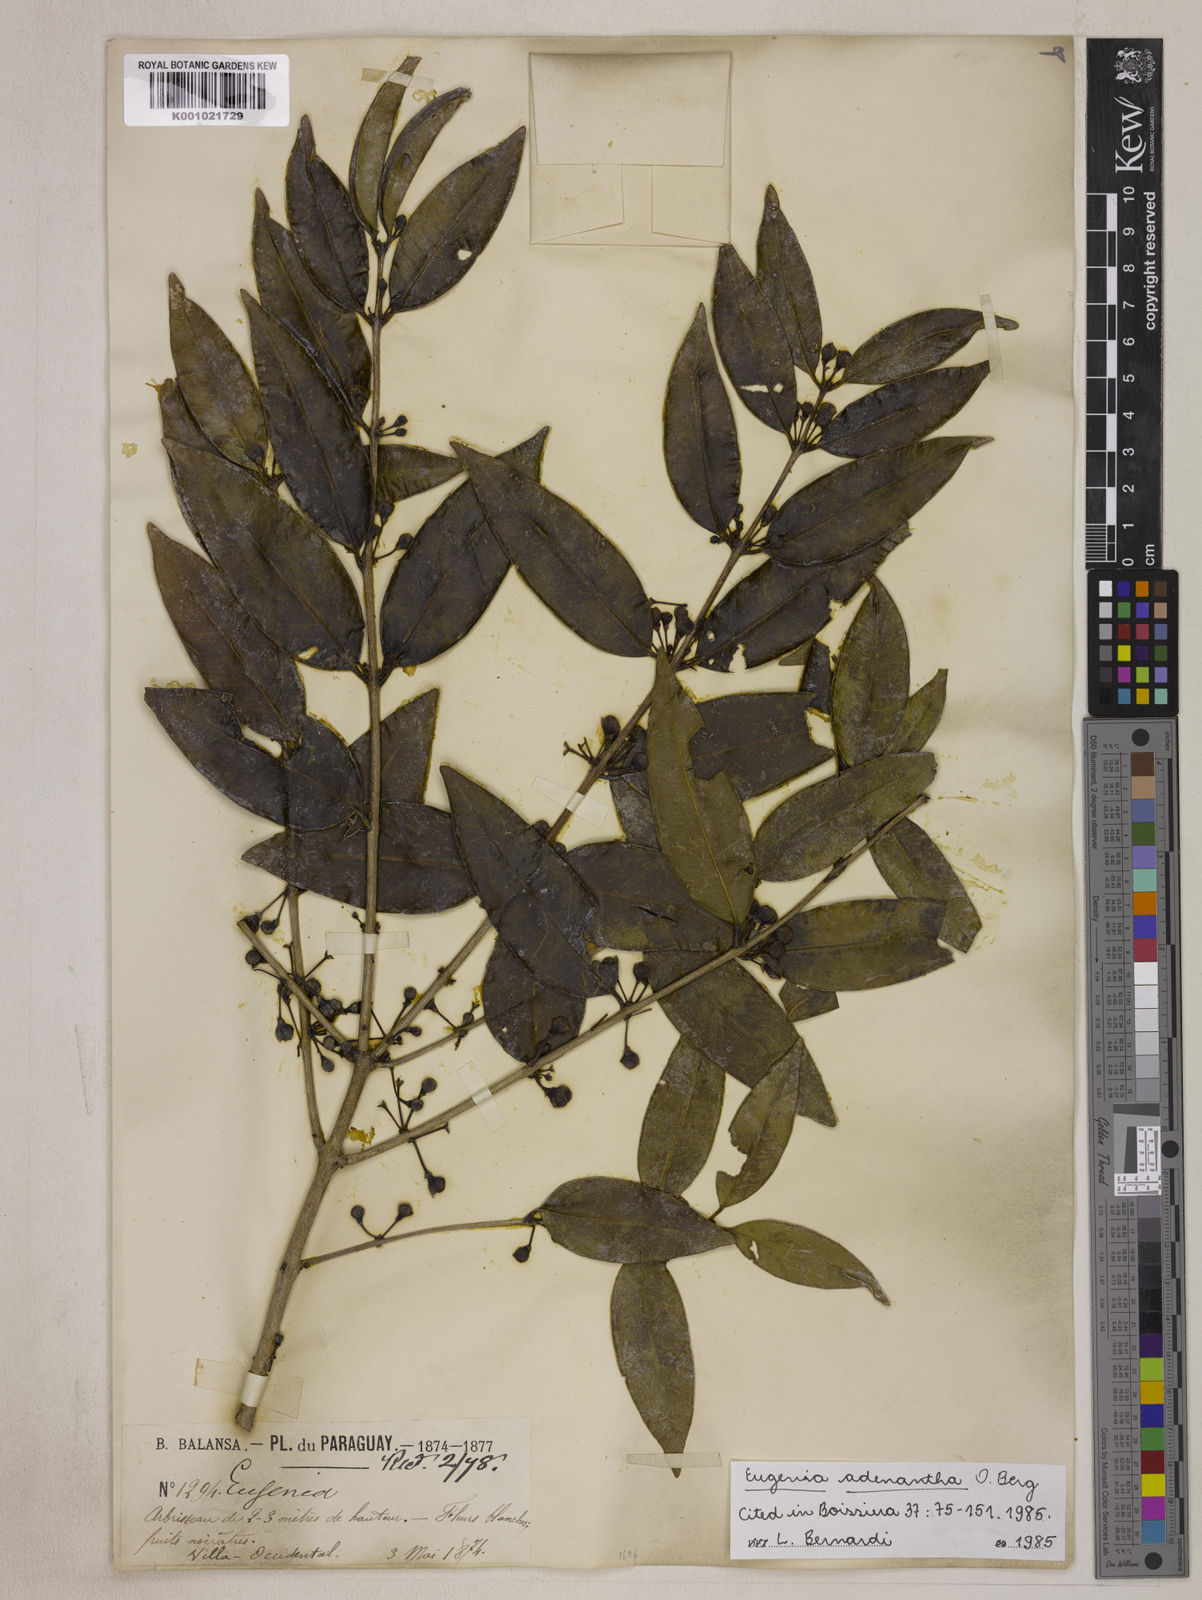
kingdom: Plantae
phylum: Tracheophyta
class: Magnoliopsida
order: Myrtales
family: Myrtaceae
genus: Eugenia
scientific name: Eugenia adenantha
